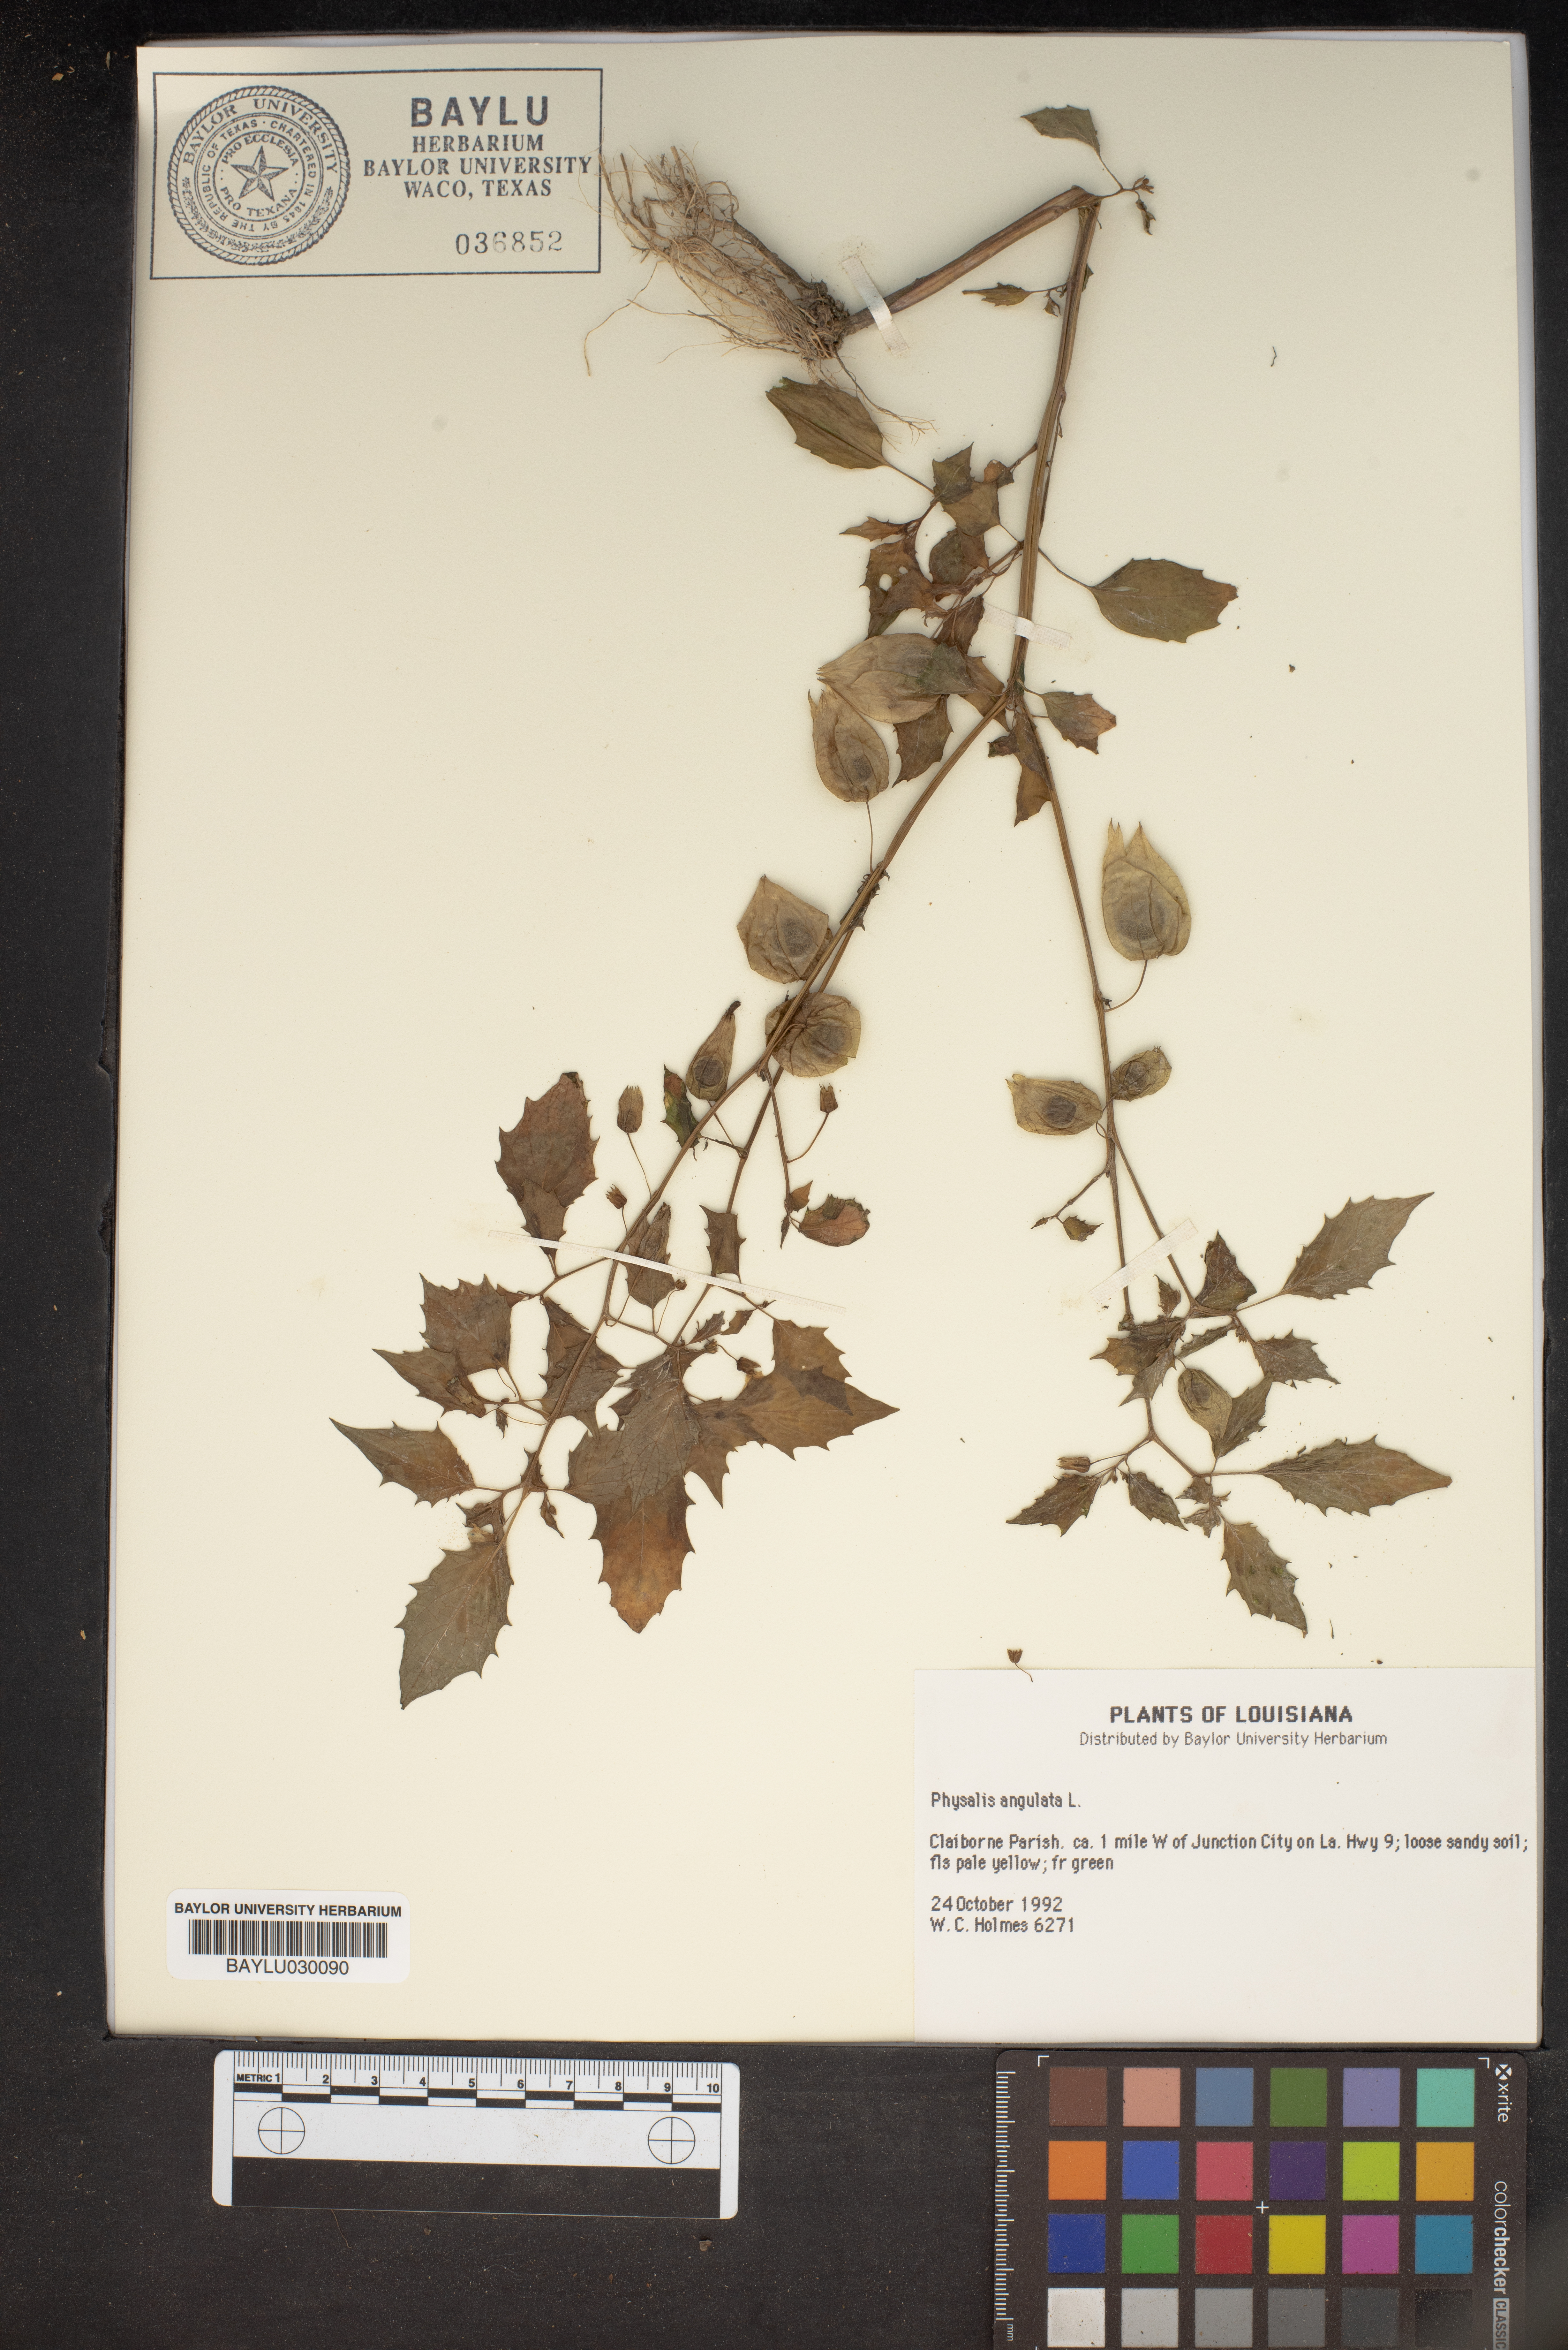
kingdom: Plantae
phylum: Tracheophyta
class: Magnoliopsida
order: Solanales
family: Solanaceae
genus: Physalis
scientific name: Physalis angulata
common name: Angular winter-cherry
